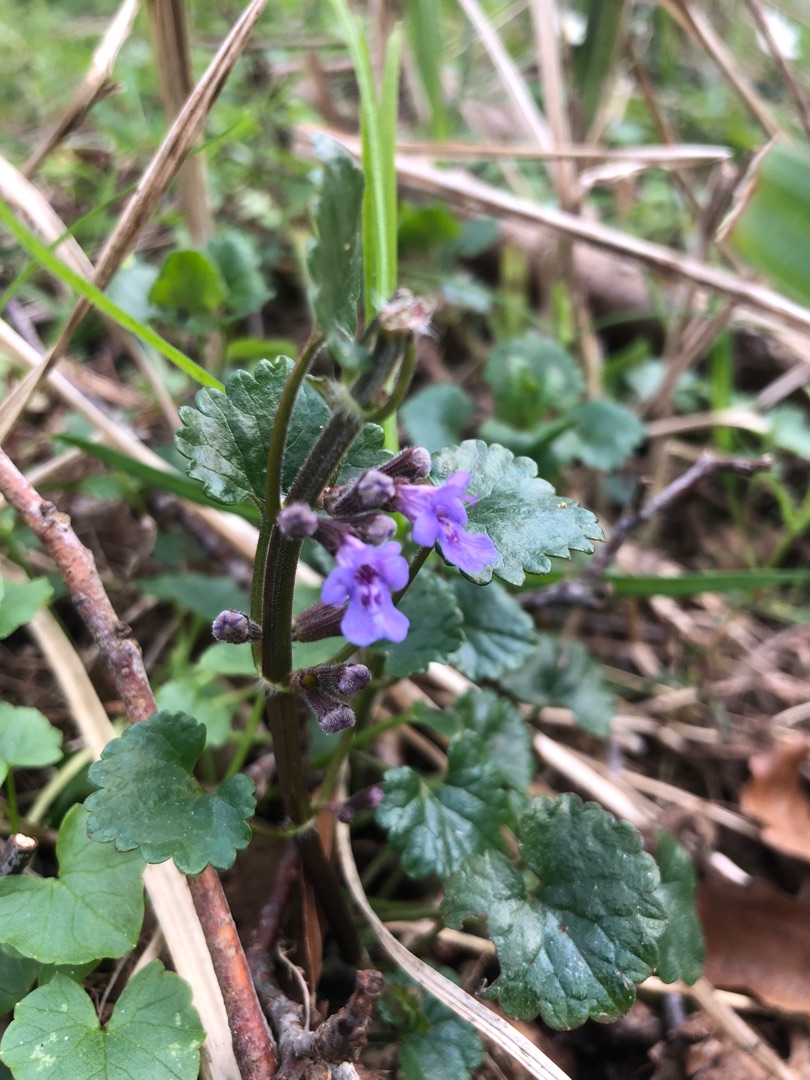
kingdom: Plantae
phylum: Tracheophyta
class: Magnoliopsida
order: Lamiales
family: Lamiaceae
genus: Glechoma
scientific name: Glechoma hederacea
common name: Korsknap
